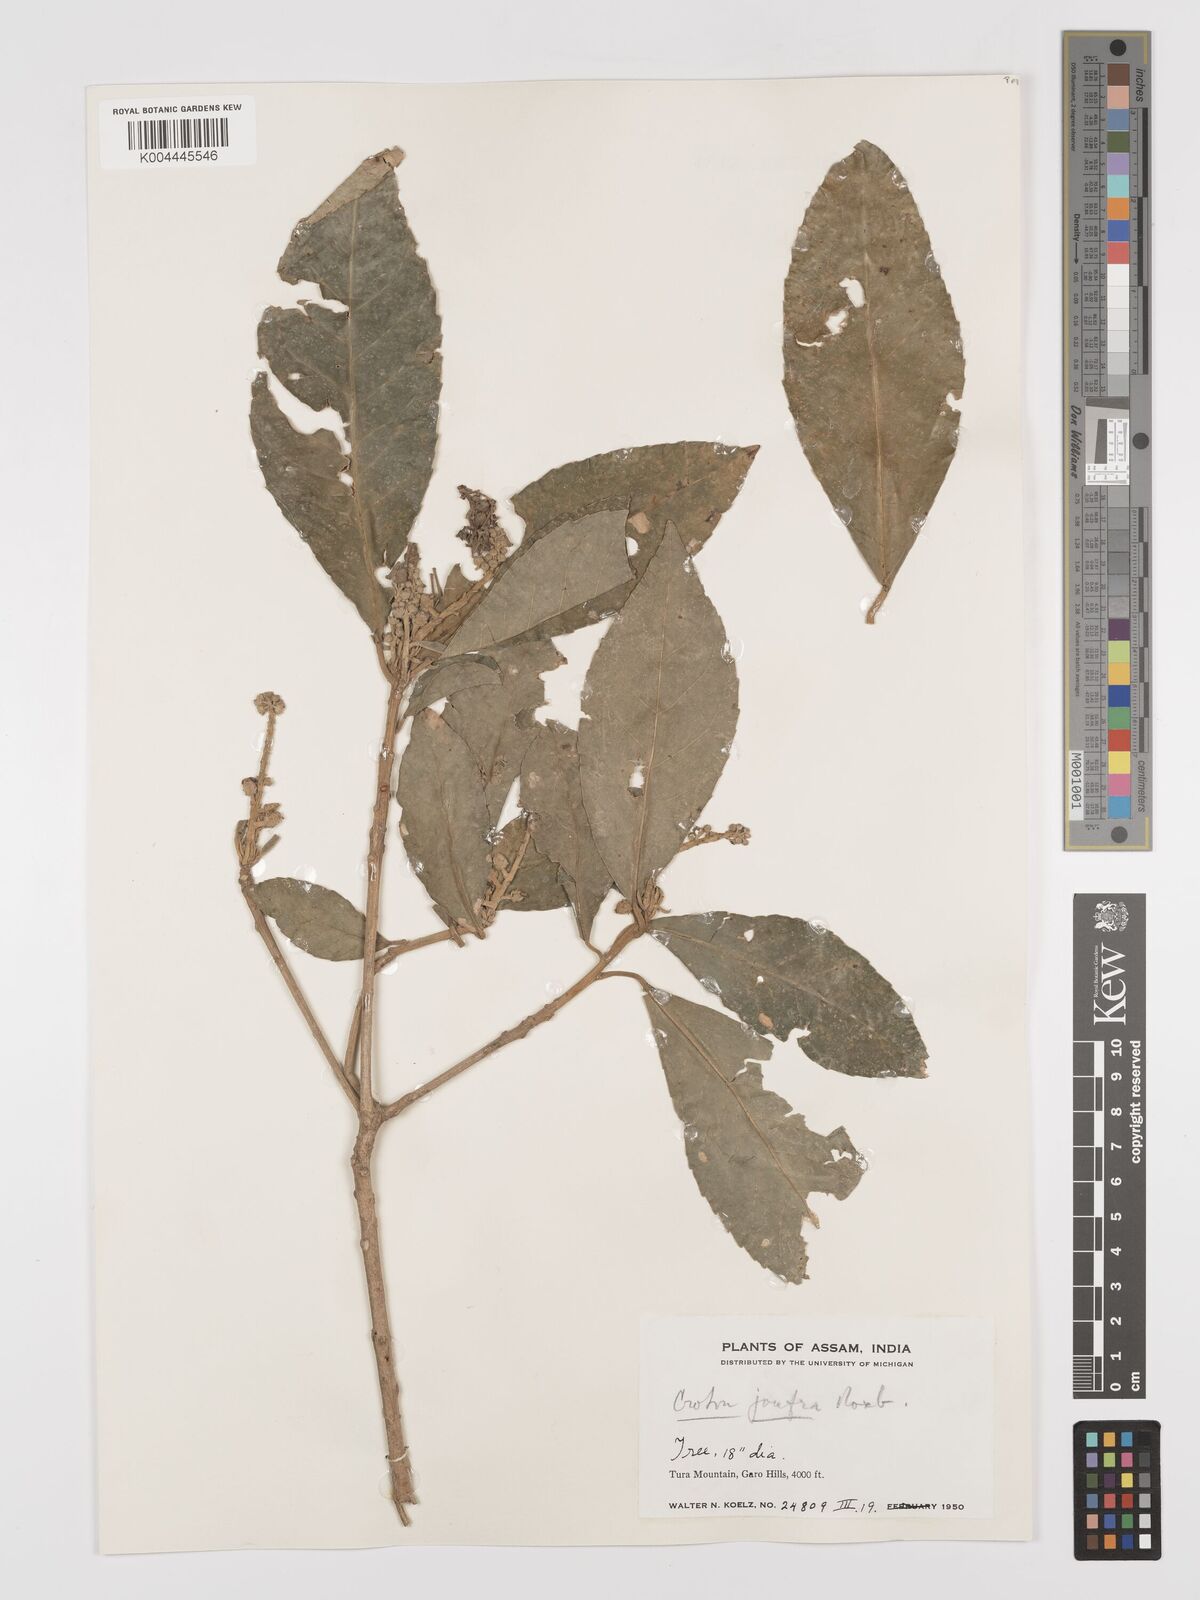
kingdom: Plantae
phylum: Tracheophyta
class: Magnoliopsida
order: Malpighiales
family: Euphorbiaceae
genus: Croton
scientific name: Croton joufra
